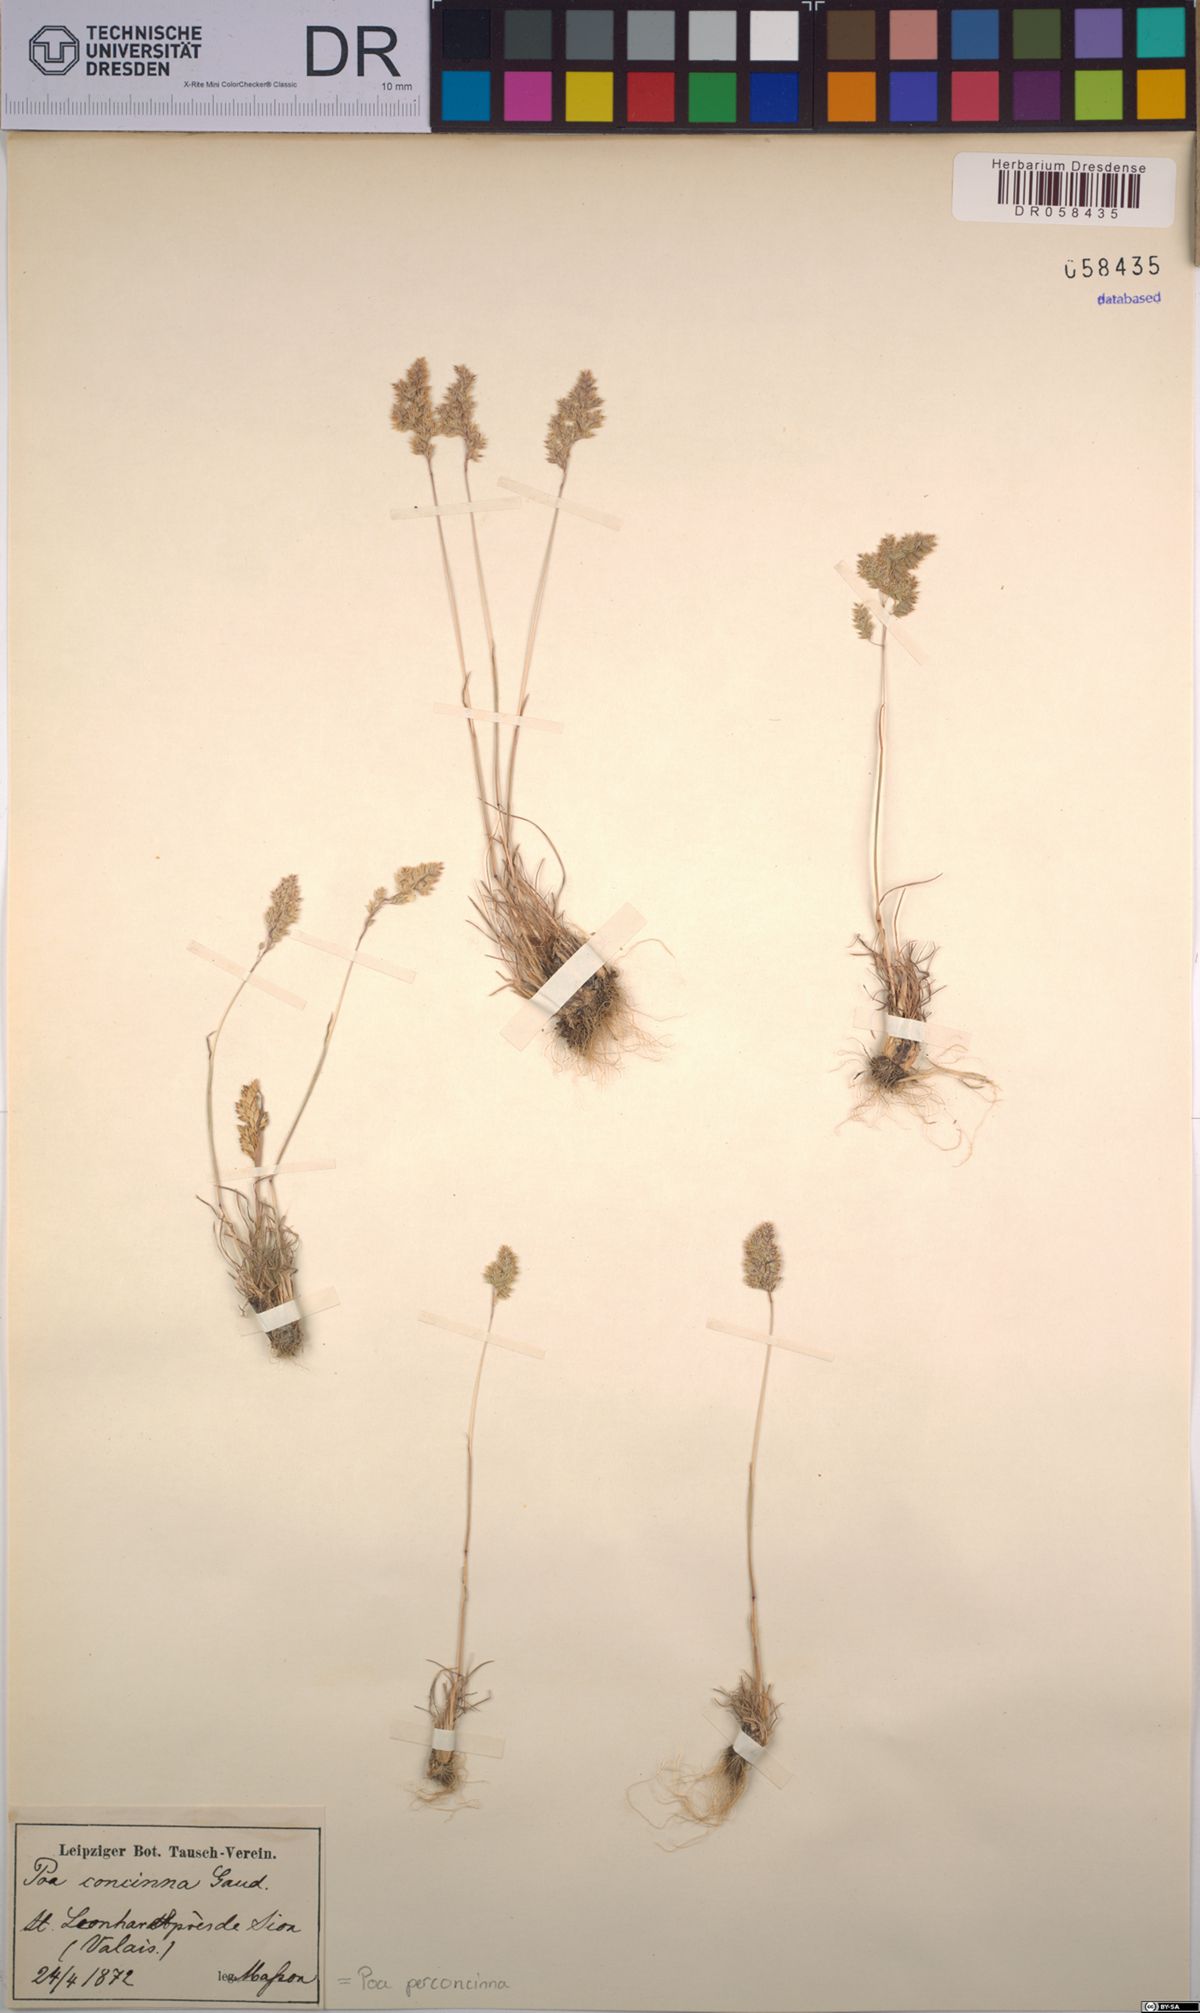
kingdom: Plantae
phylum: Tracheophyta
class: Liliopsida
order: Poales
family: Poaceae
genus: Poa
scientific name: Poa perconcinna
